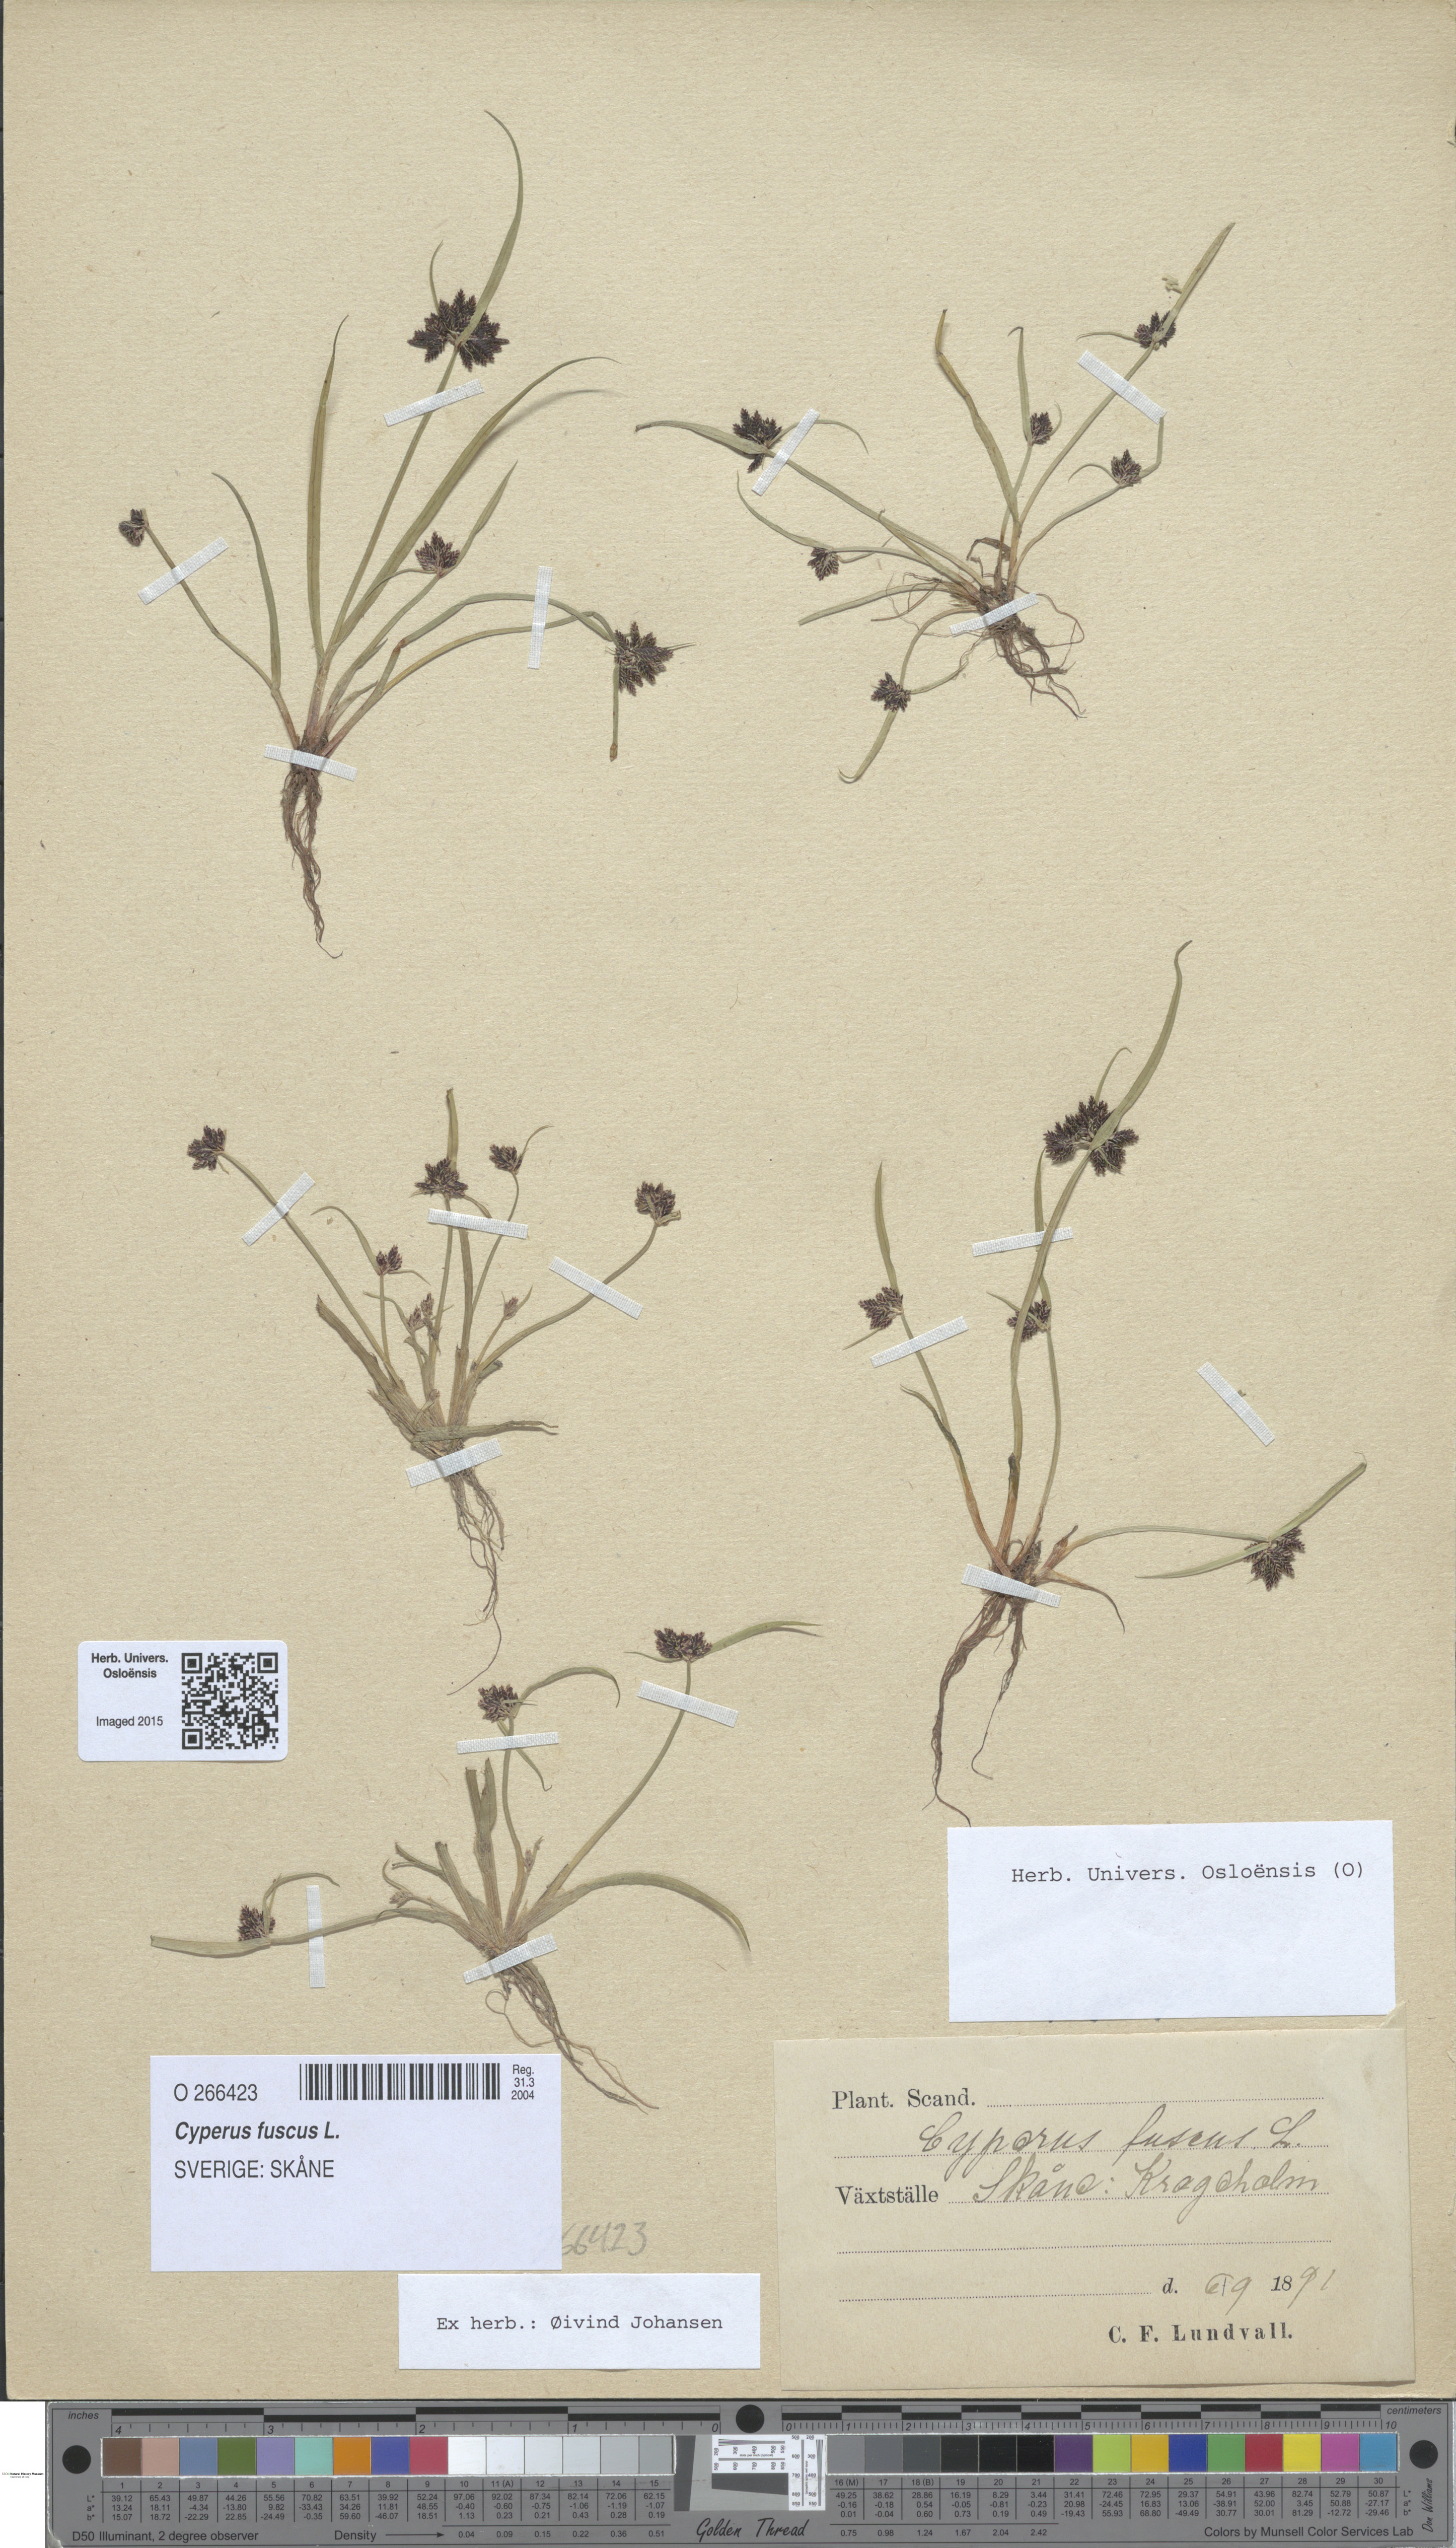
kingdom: Plantae
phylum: Tracheophyta
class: Liliopsida
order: Poales
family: Cyperaceae
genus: Cyperus
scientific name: Cyperus fuscus
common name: Brown galingale
